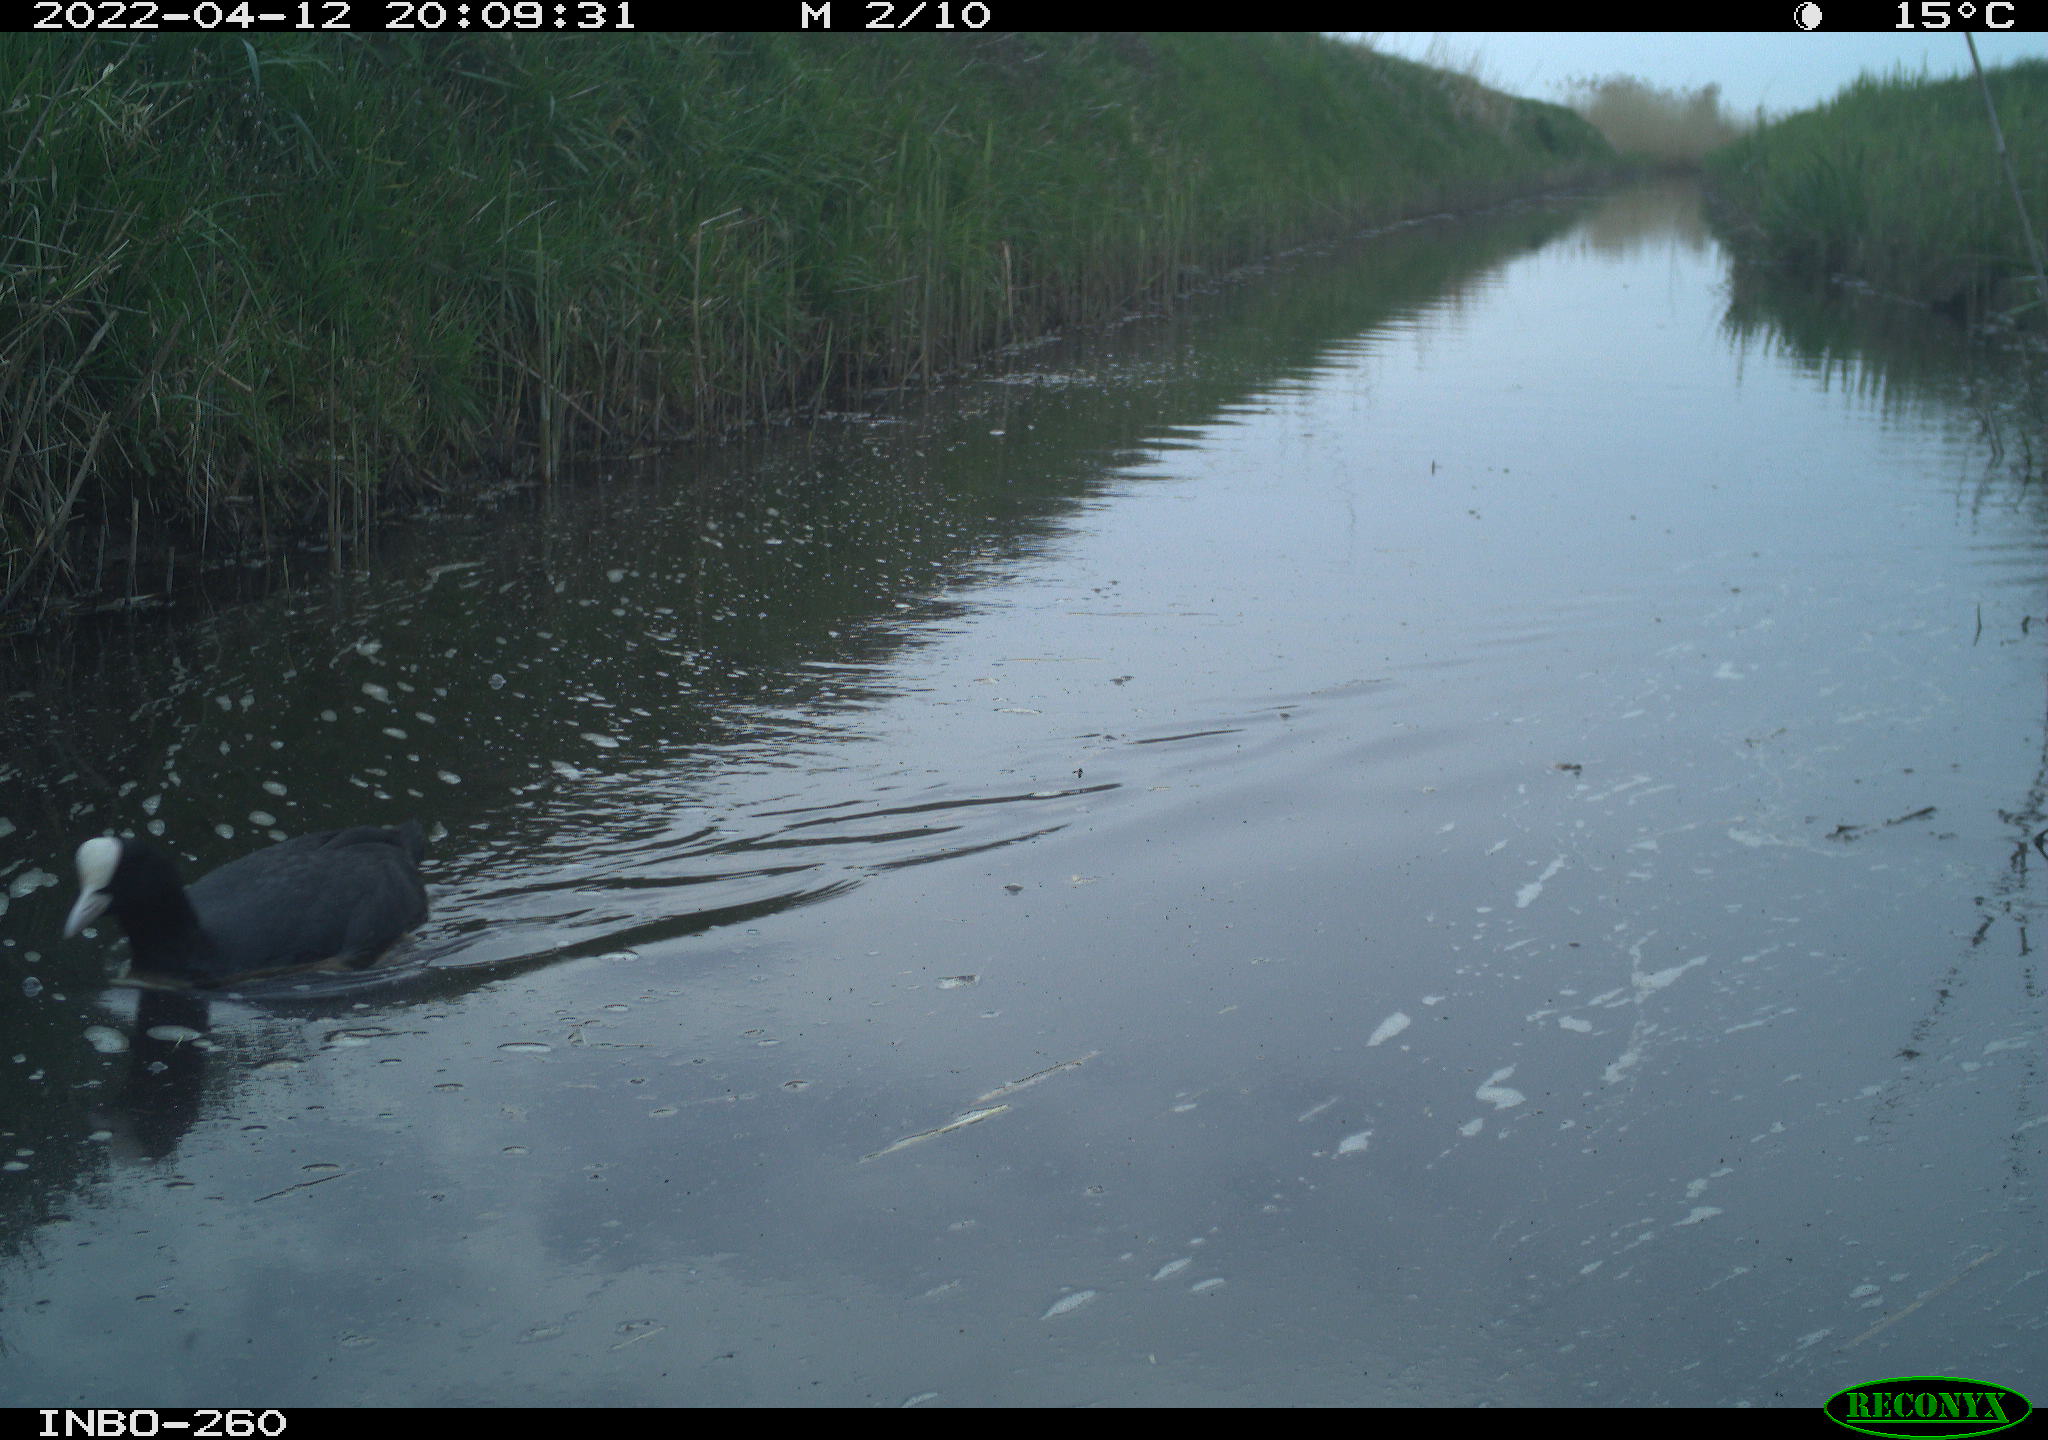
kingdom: Animalia
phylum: Chordata
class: Aves
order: Gruiformes
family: Rallidae
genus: Fulica
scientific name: Fulica atra
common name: Eurasian coot
